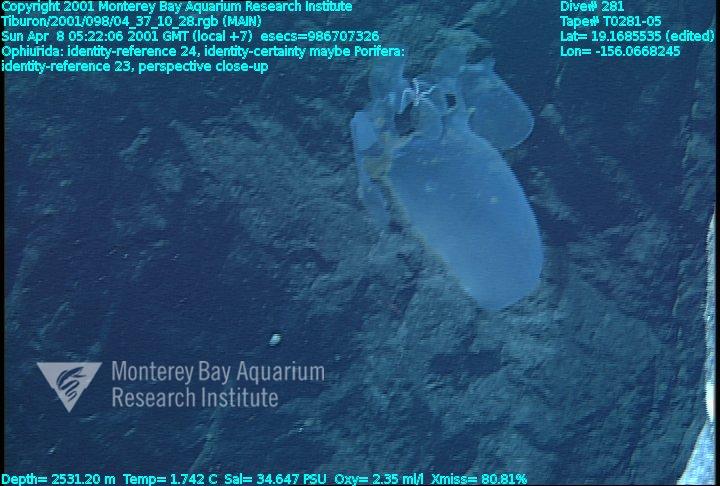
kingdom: Animalia
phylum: Porifera
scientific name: Porifera
